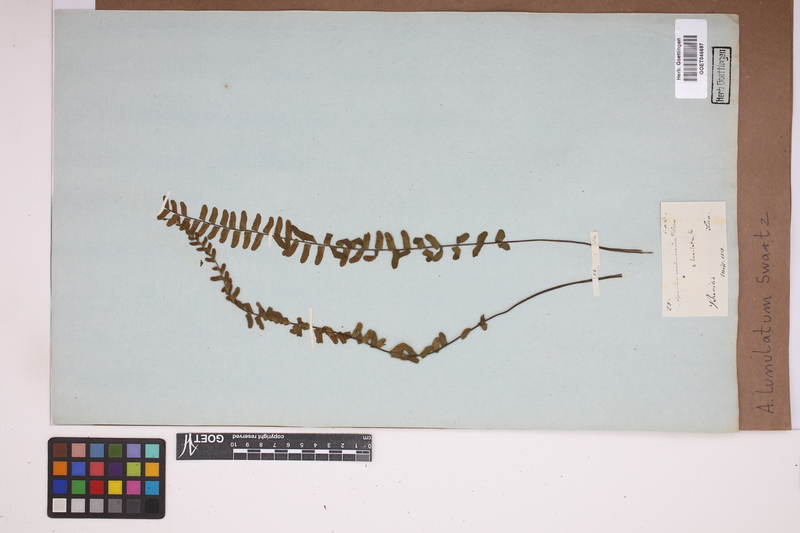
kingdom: Plantae
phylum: Tracheophyta
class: Polypodiopsida
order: Polypodiales
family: Aspleniaceae
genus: Asplenium
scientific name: Asplenium lunulatum
